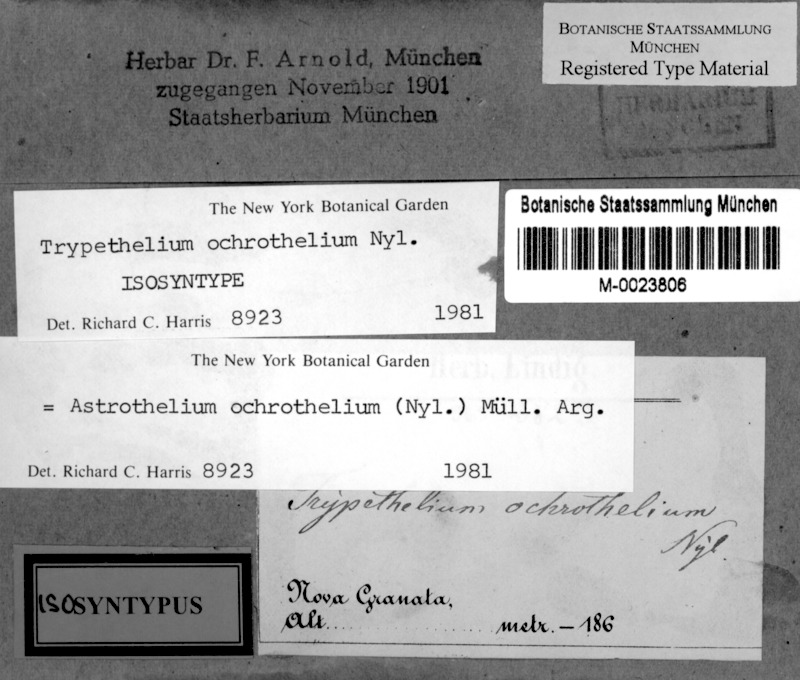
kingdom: Fungi
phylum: Ascomycota
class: Dothideomycetes
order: Trypetheliales
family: Trypetheliaceae
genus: Astrothelium
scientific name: Astrothelium ochrothelium
